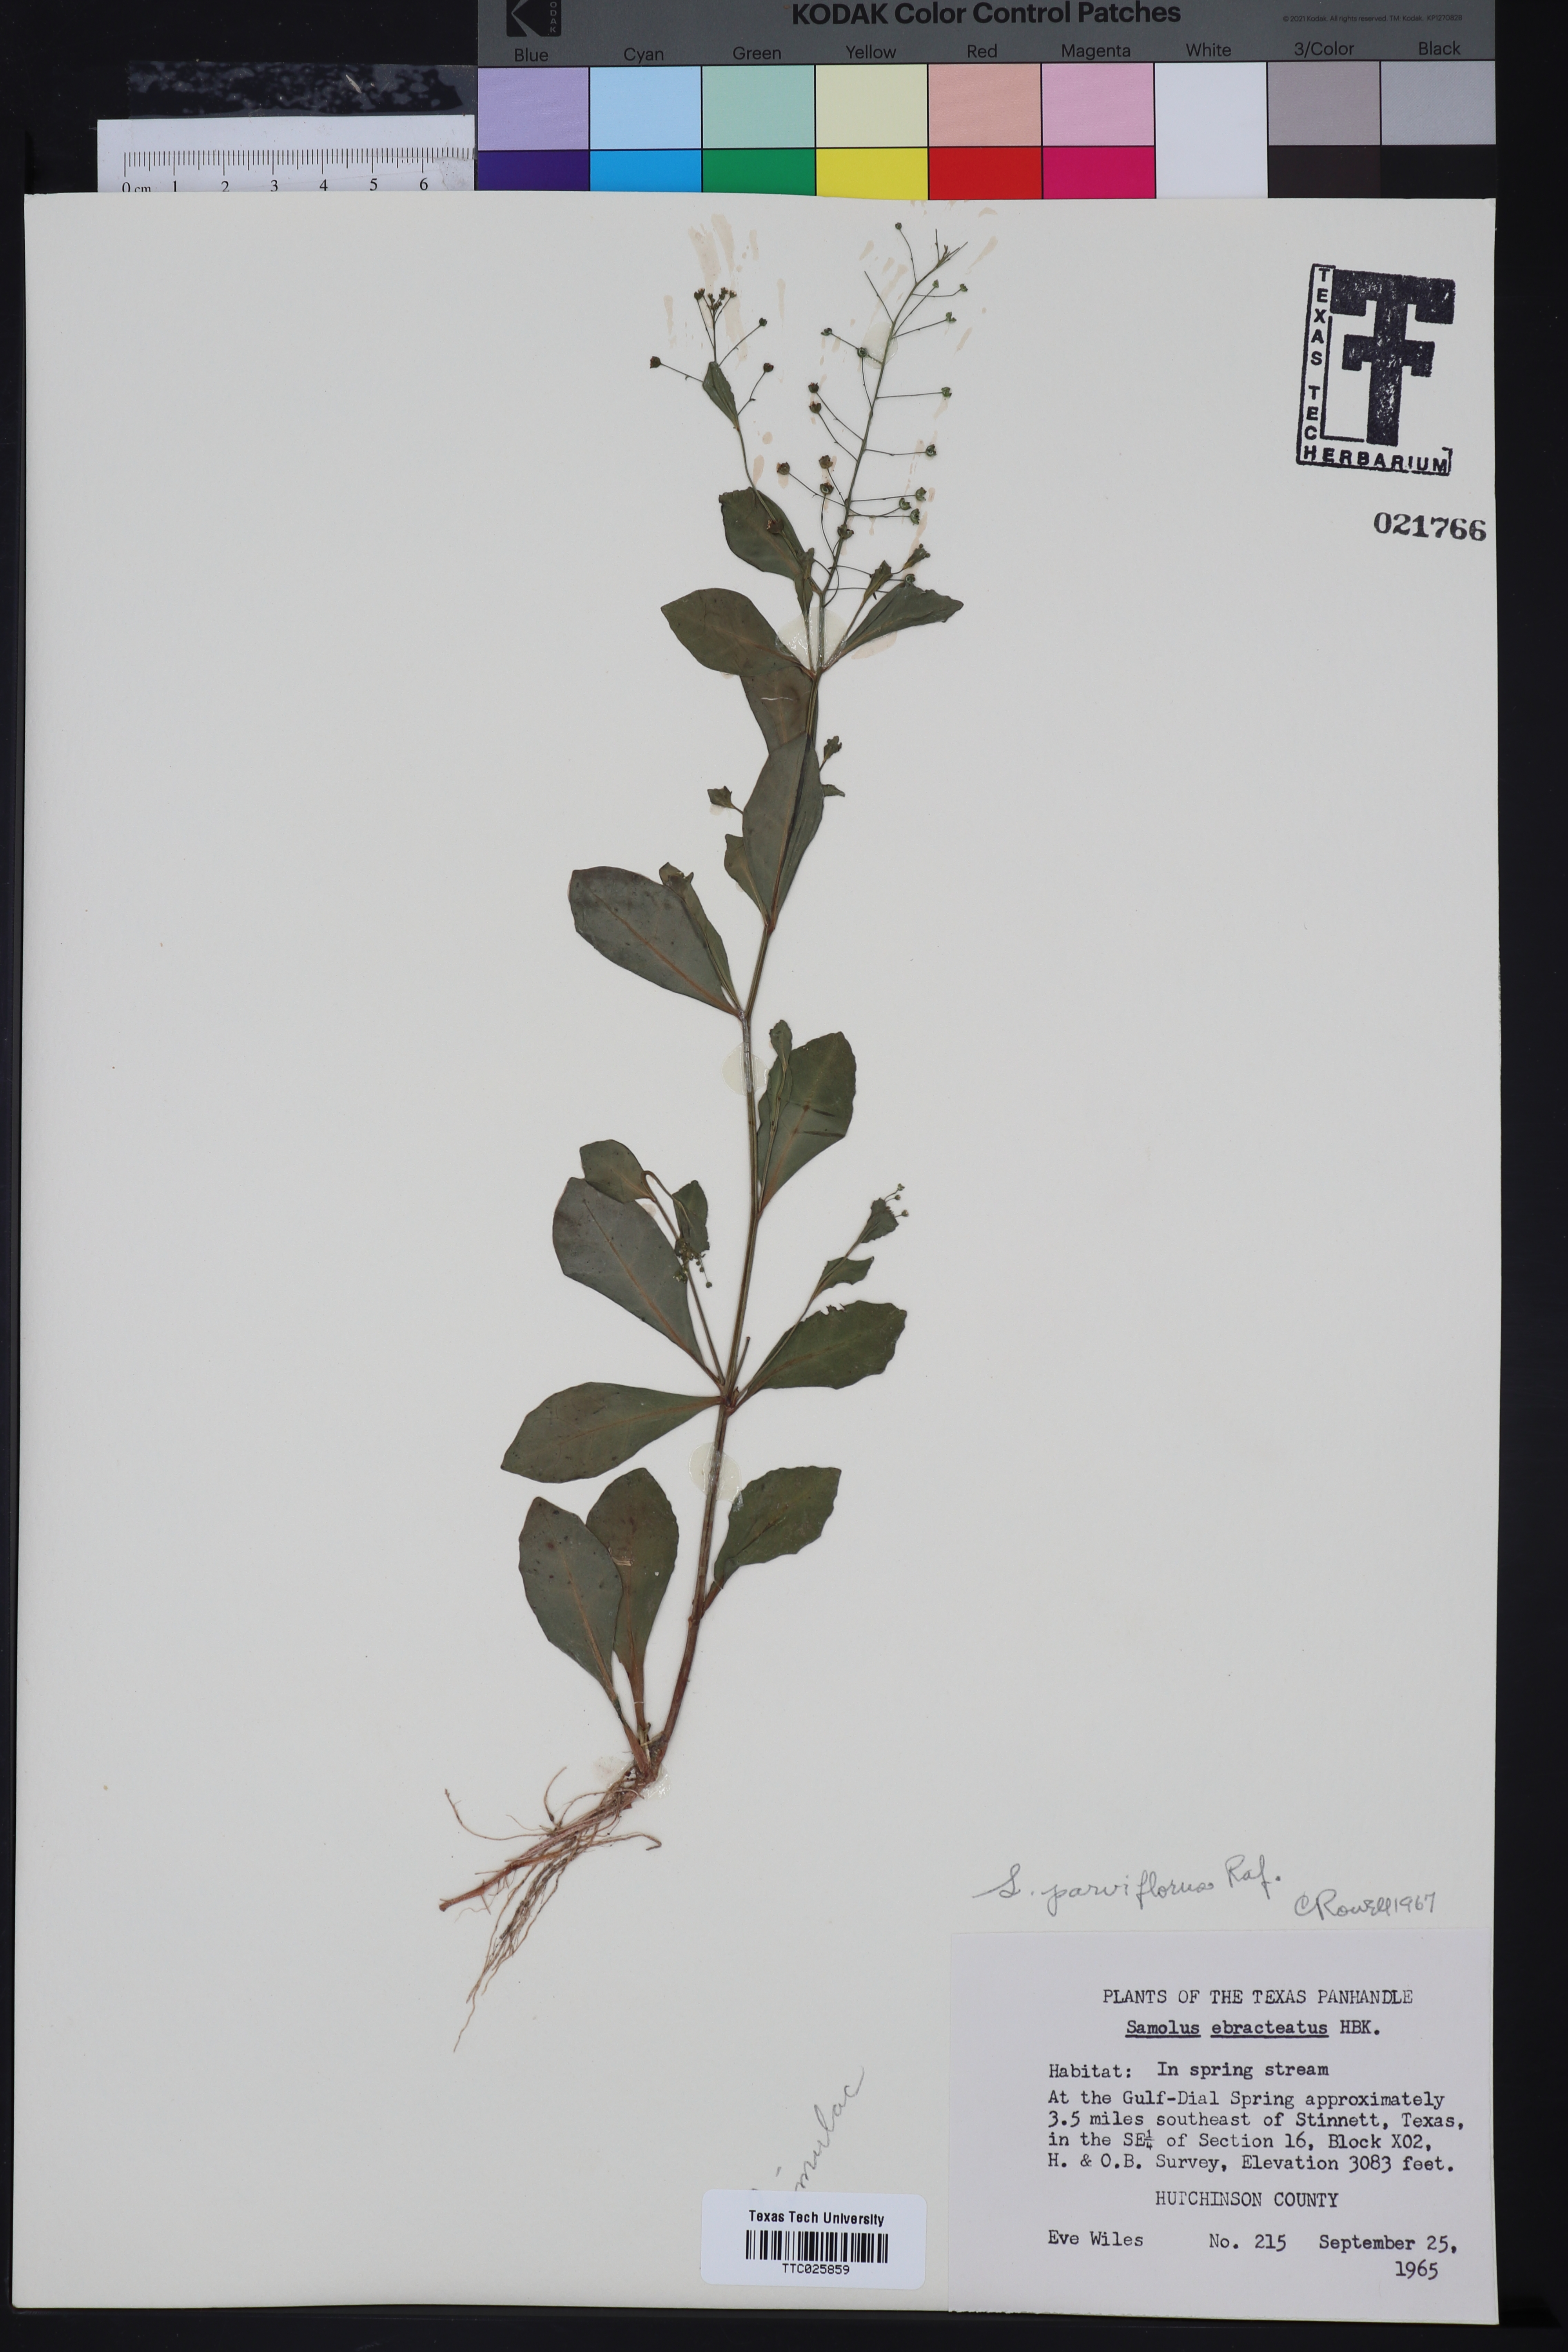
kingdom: Plantae
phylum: Tracheophyta
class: Magnoliopsida
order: Ericales
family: Primulaceae
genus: Samolus
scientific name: Samolus parviflorus
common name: False water pimpernel
